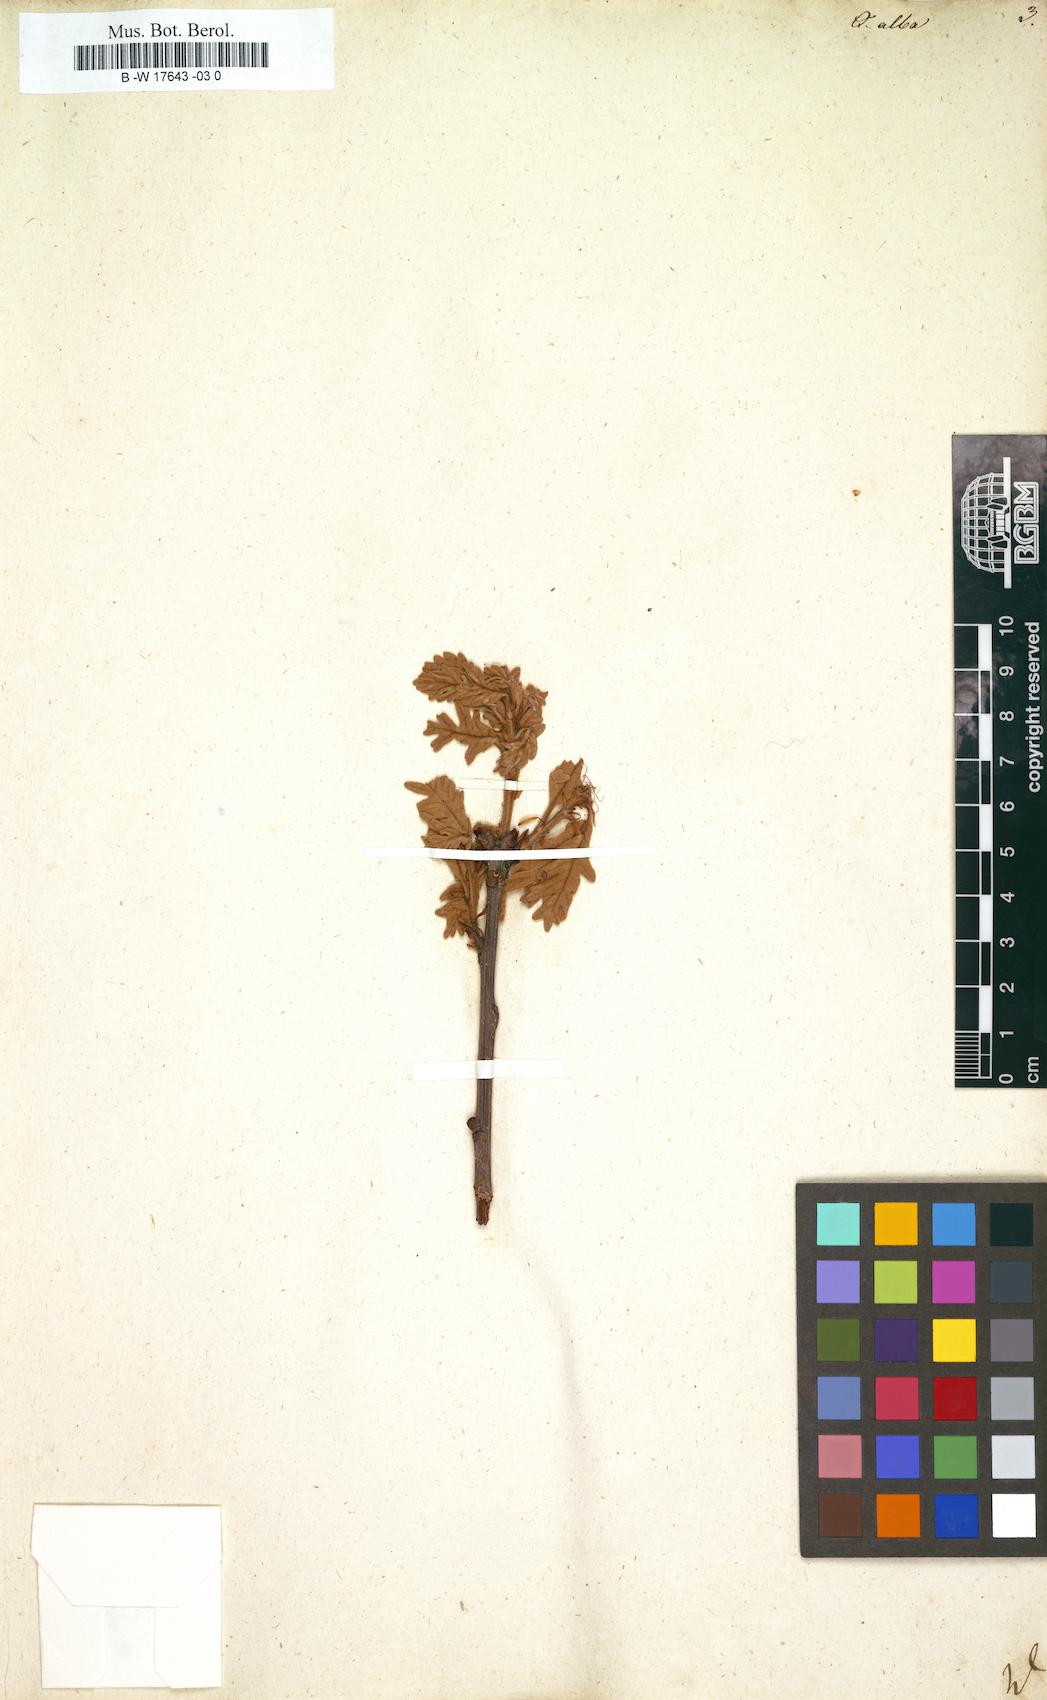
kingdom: Plantae
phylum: Tracheophyta
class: Magnoliopsida
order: Fagales
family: Fagaceae
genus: Quercus
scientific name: Quercus alba
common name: White oak
